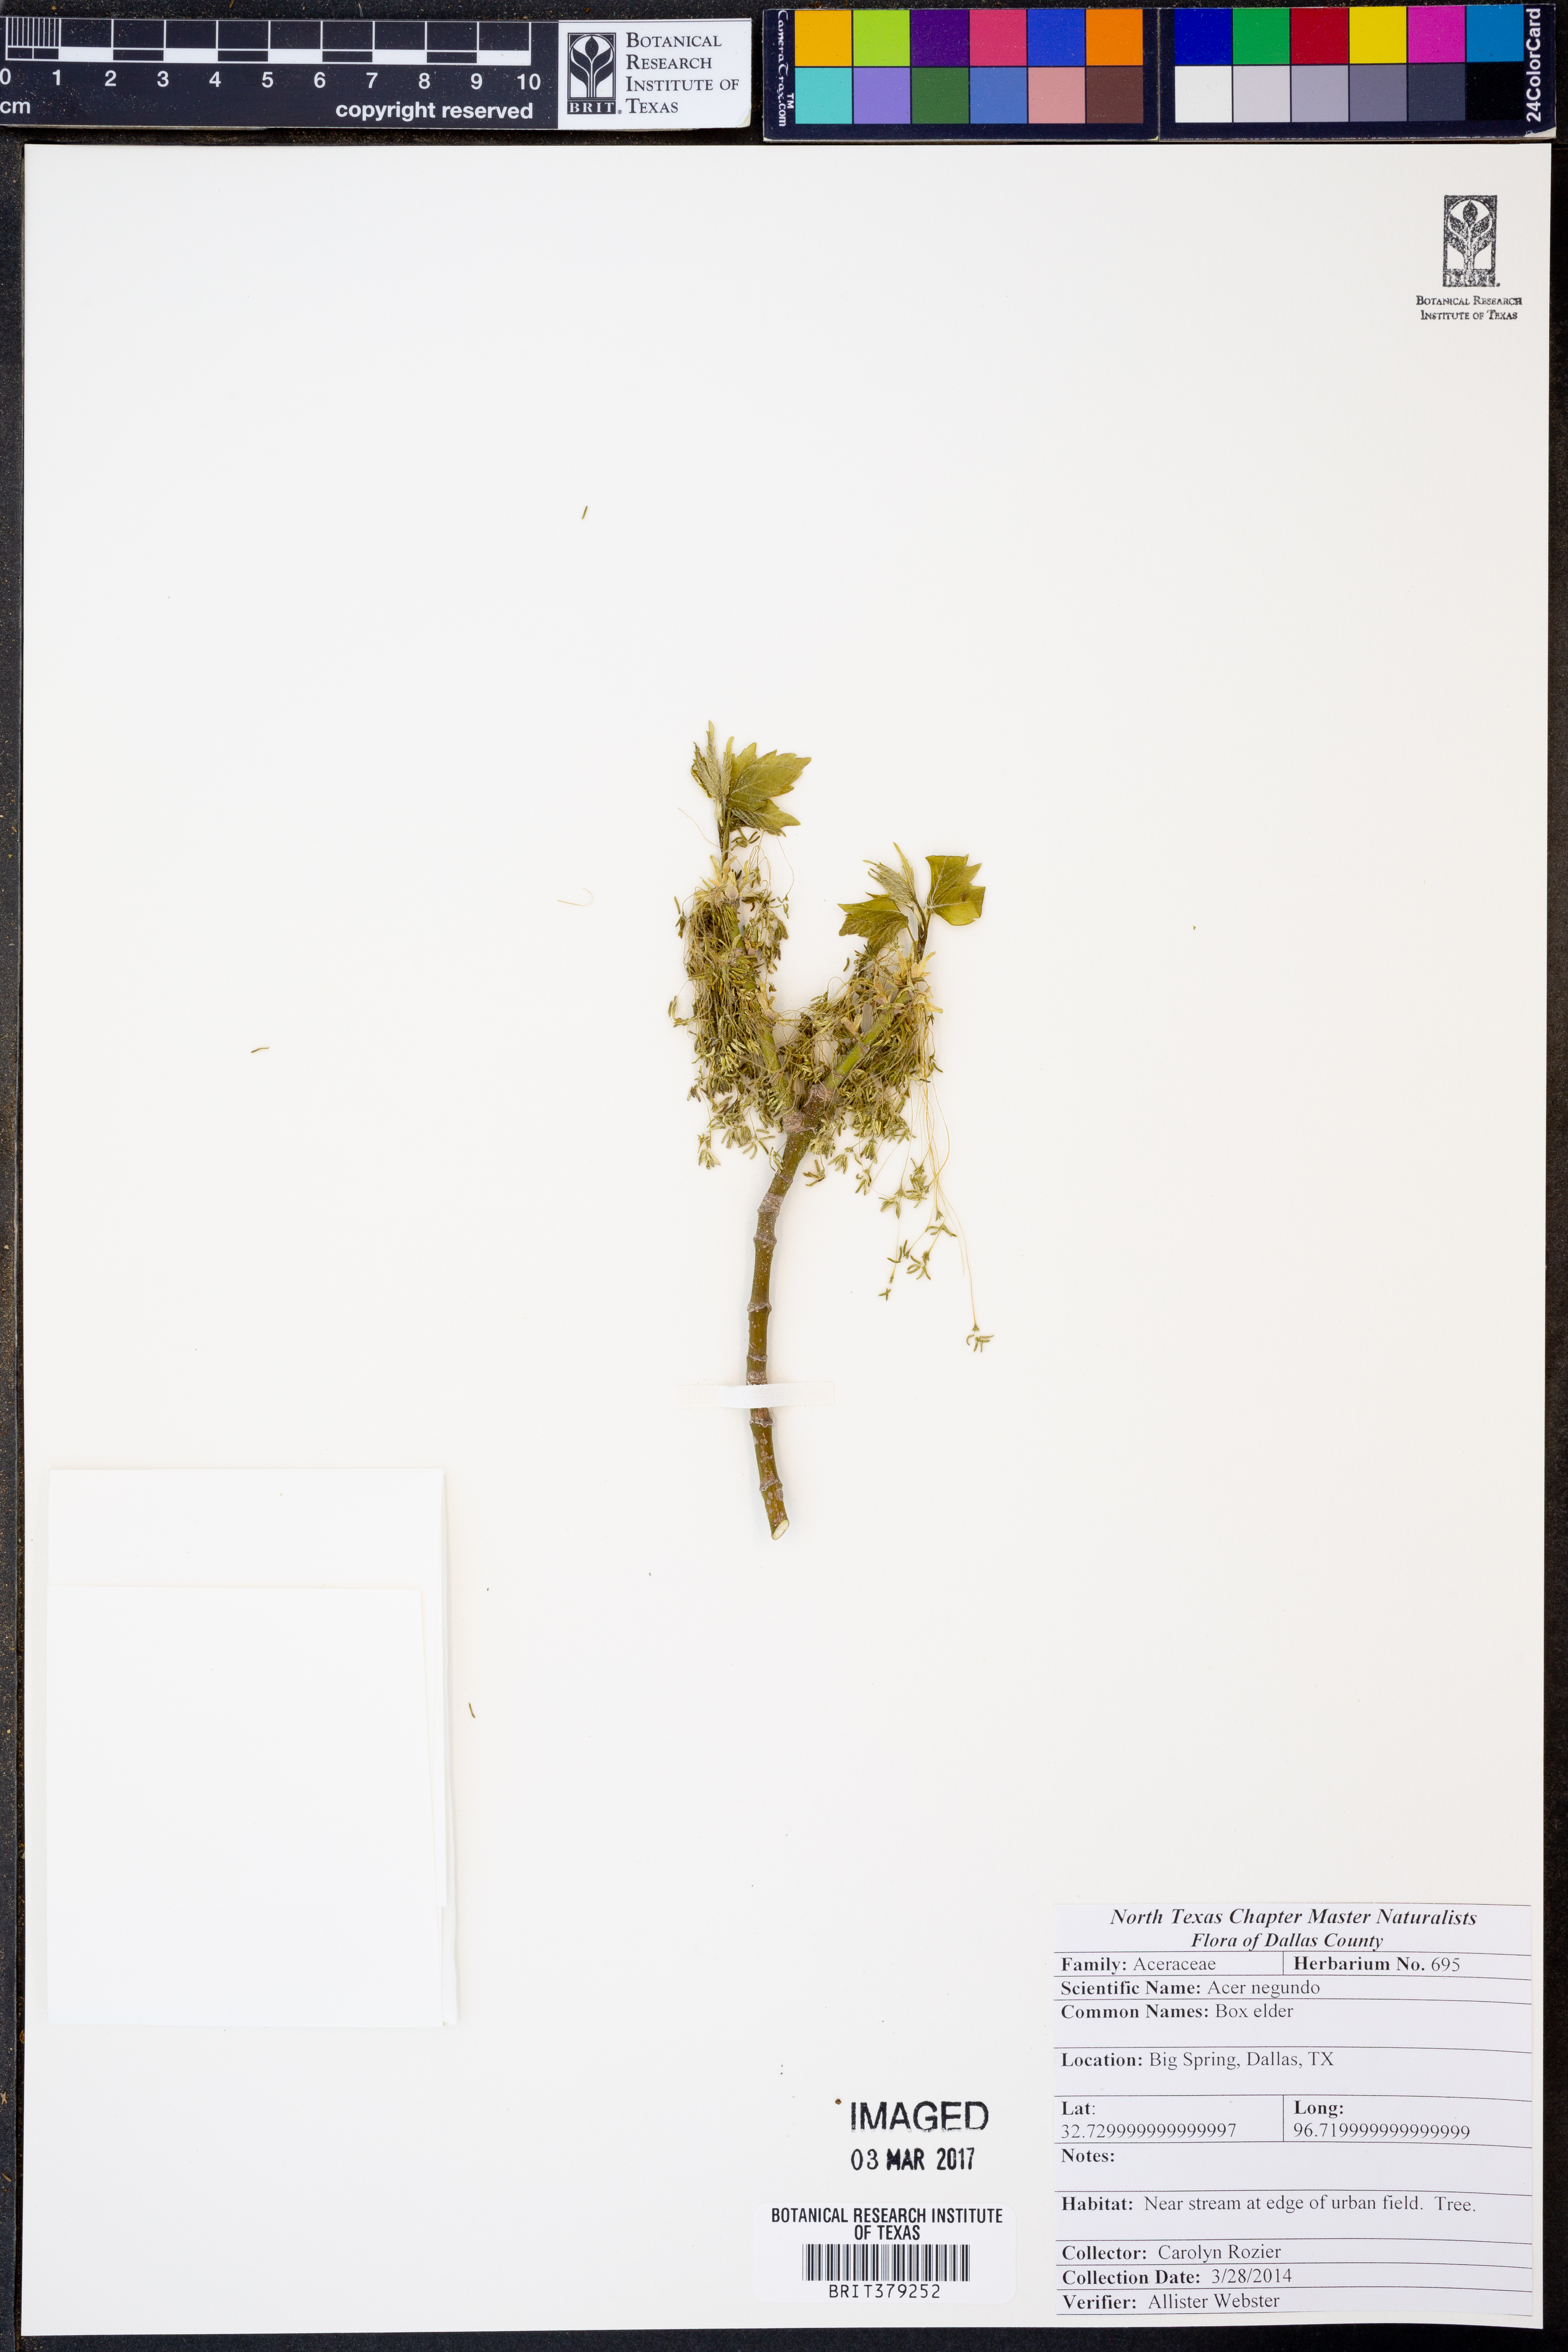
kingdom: Plantae
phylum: Tracheophyta
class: Magnoliopsida
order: Sapindales
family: Sapindaceae
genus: Acer
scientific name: Acer negundo
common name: Ashleaf maple
